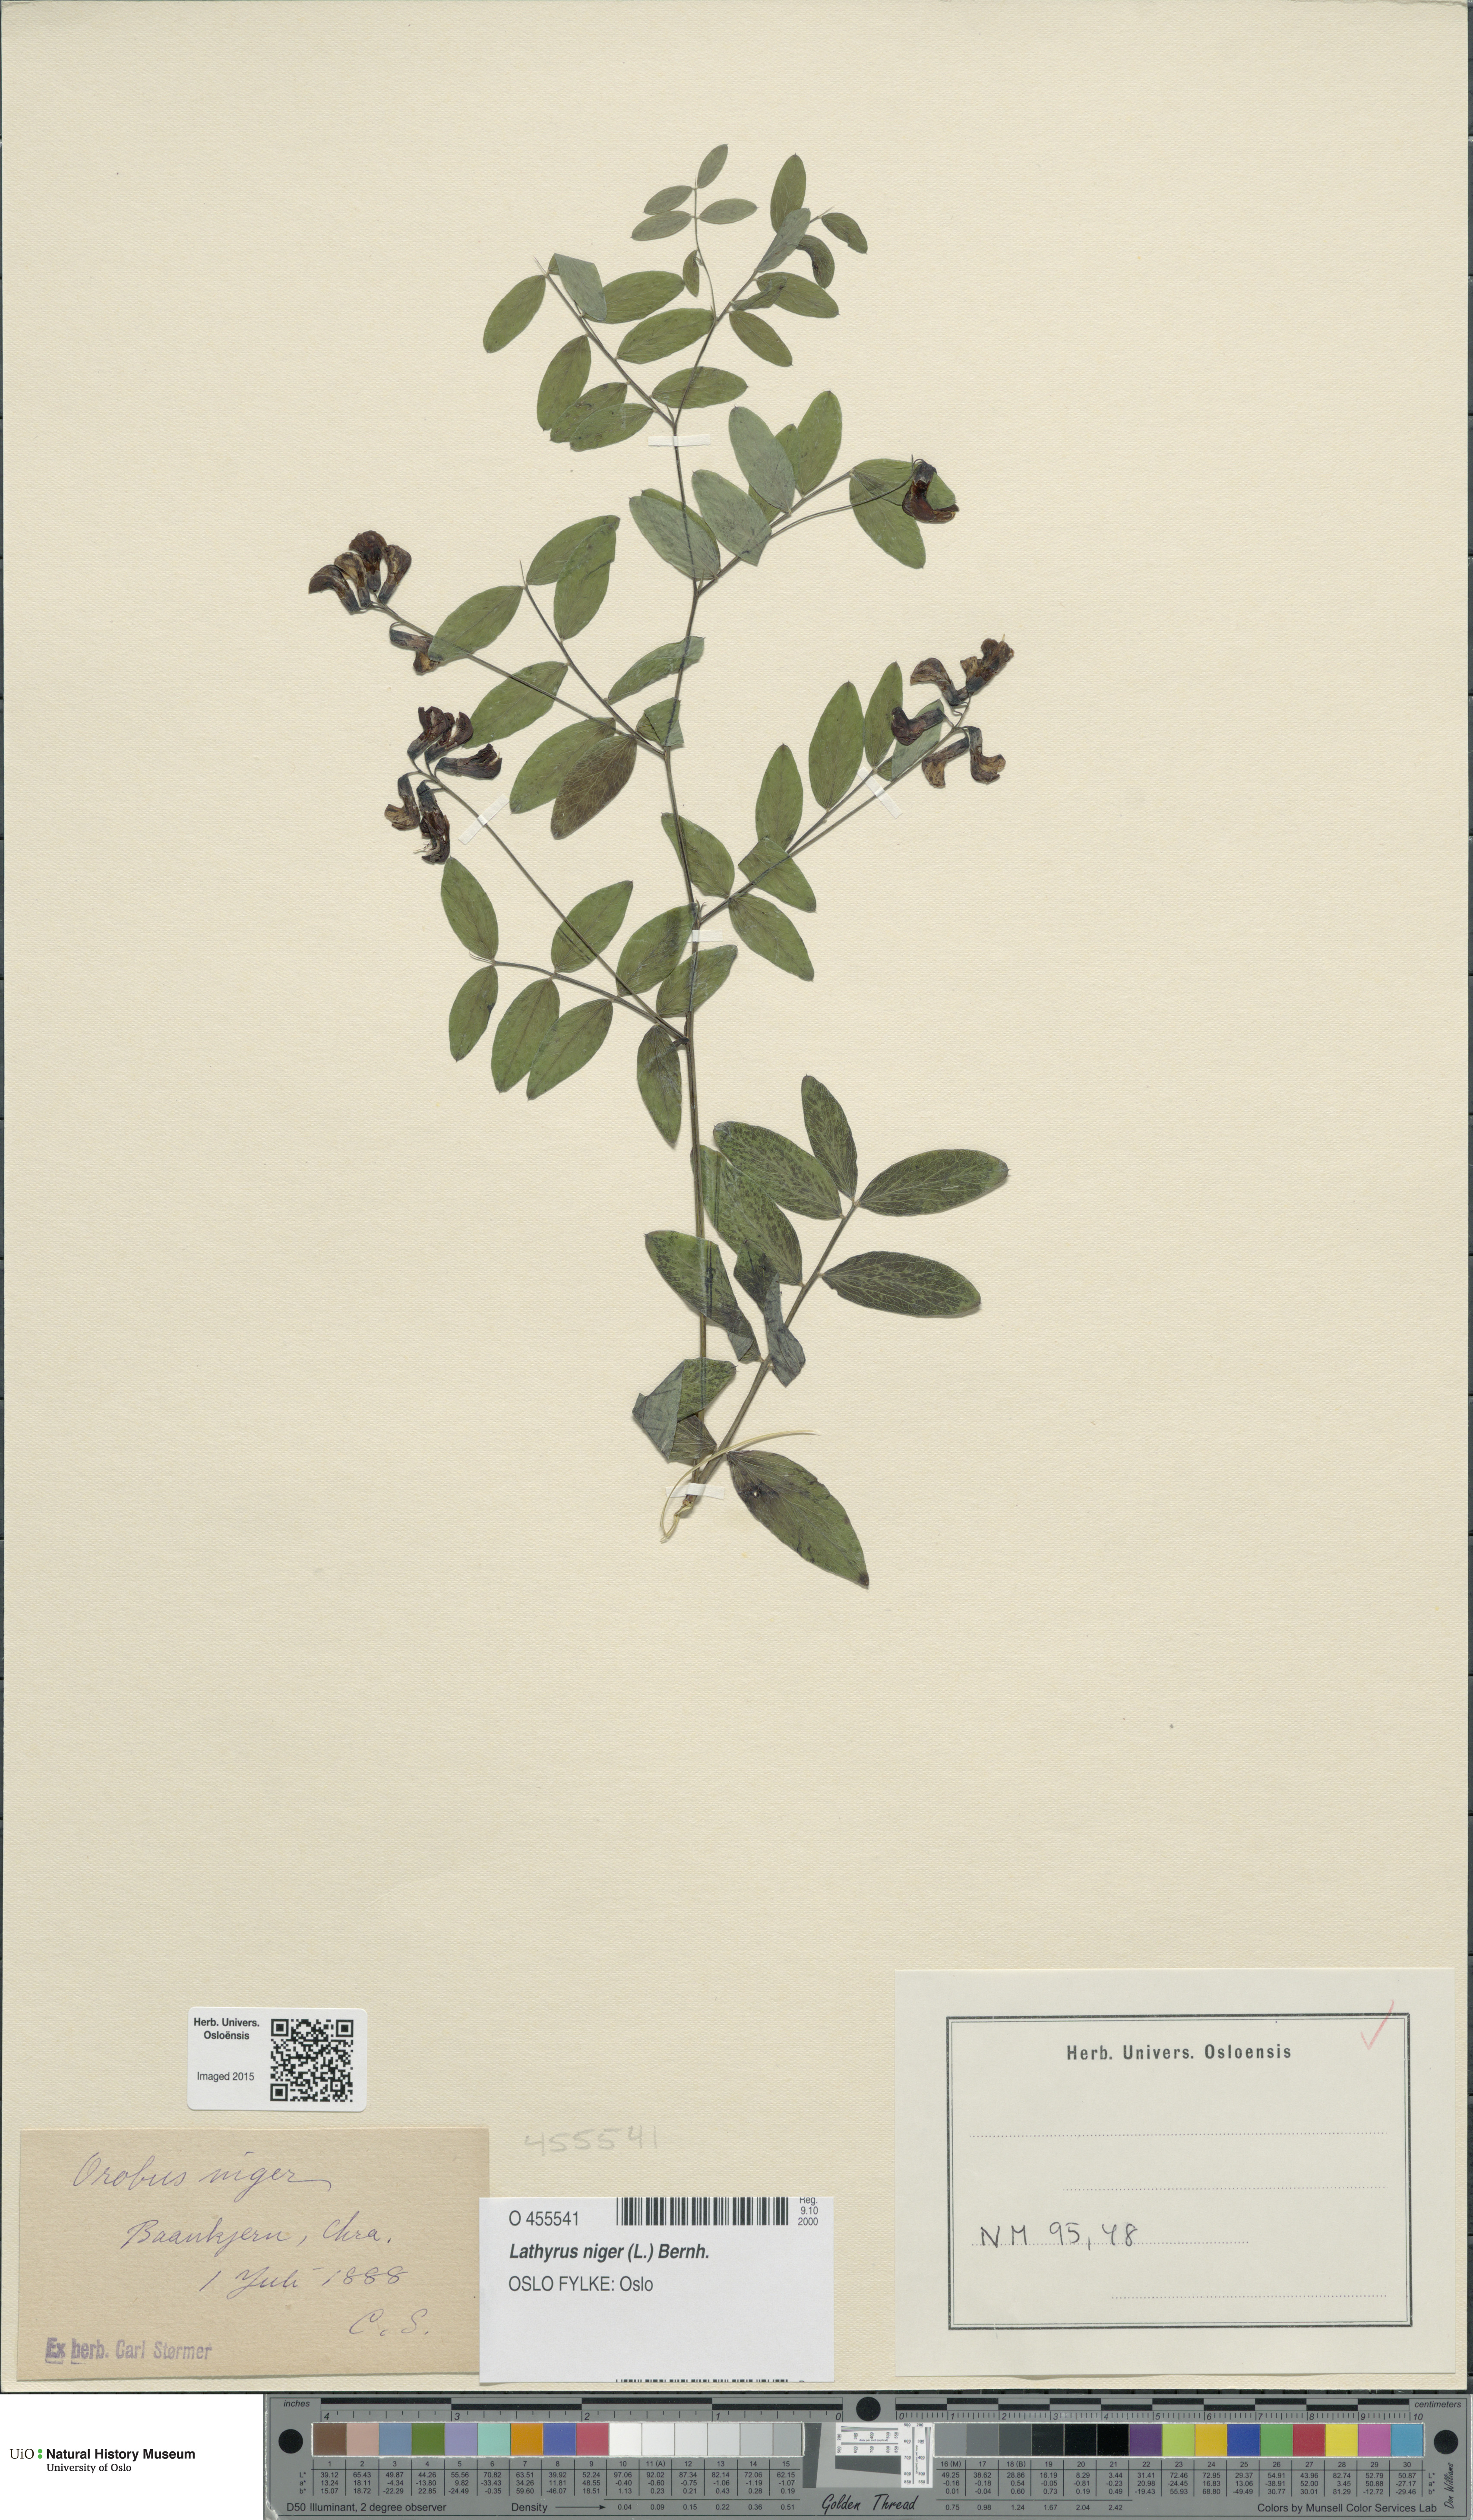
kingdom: Plantae
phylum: Tracheophyta
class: Magnoliopsida
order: Fabales
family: Fabaceae
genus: Lathyrus
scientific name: Lathyrus niger
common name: Black pea
